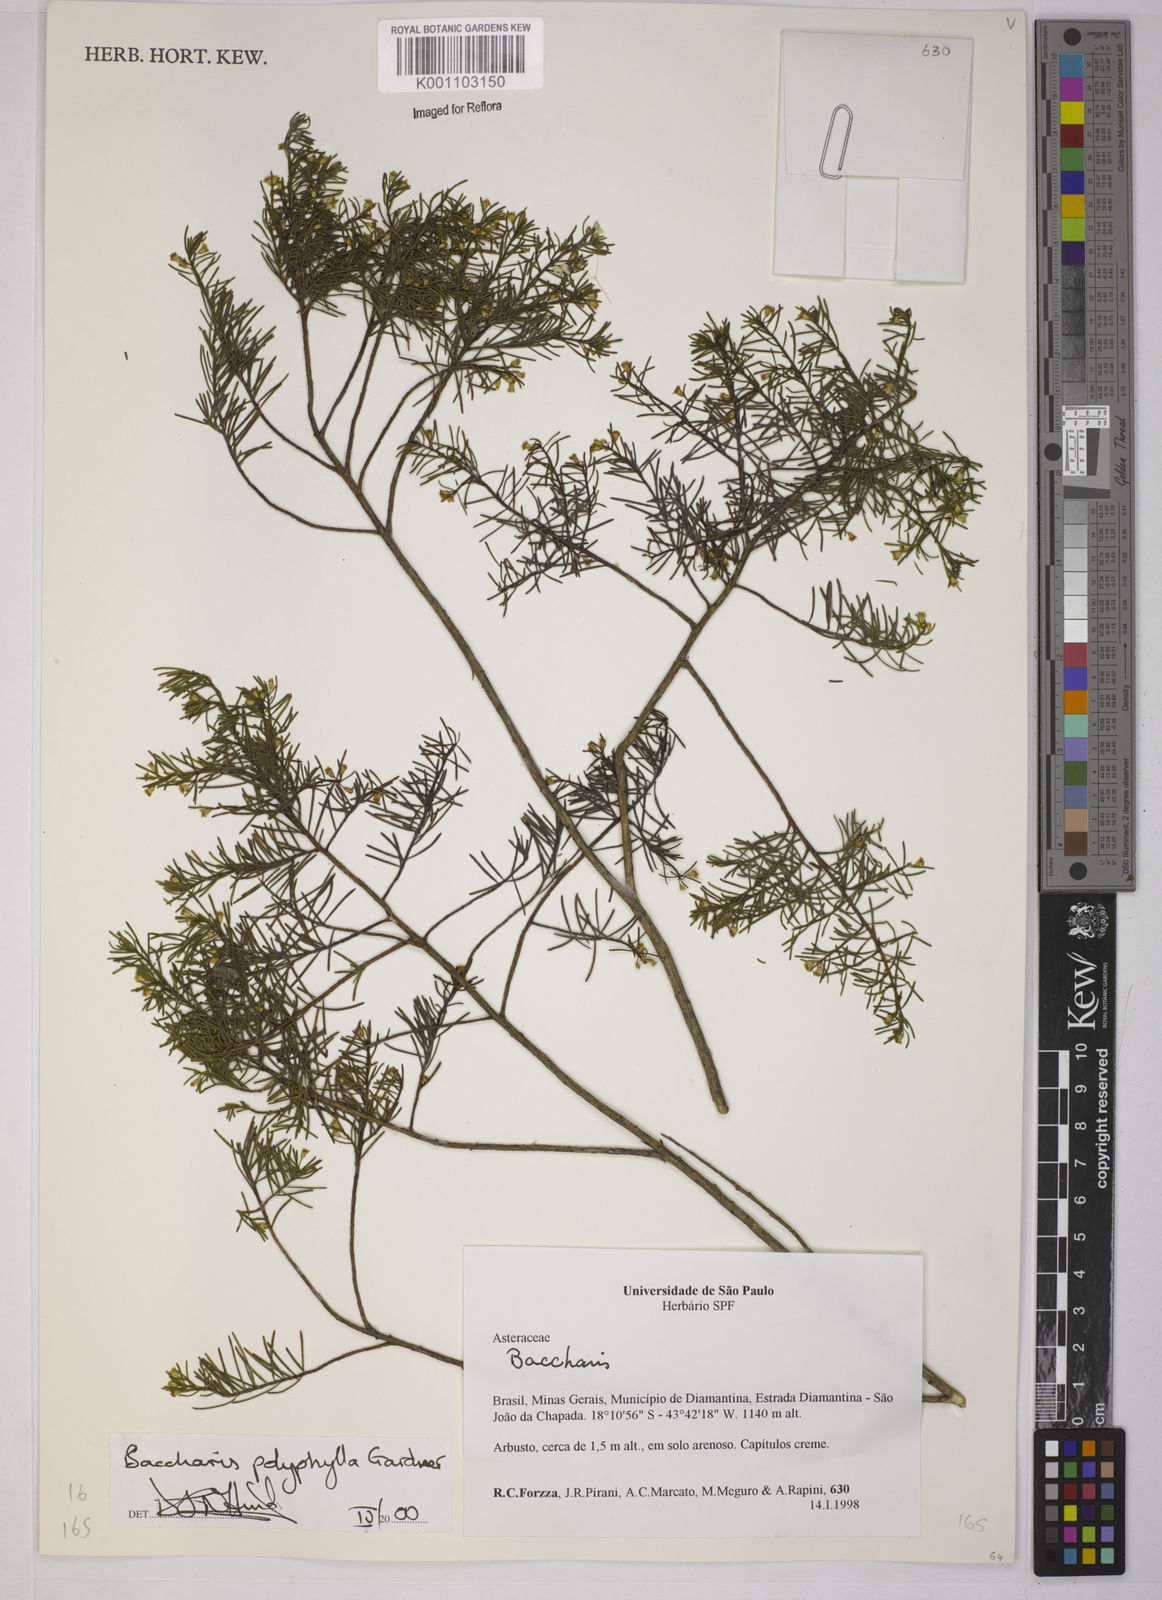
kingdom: Plantae
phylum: Tracheophyta
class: Magnoliopsida
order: Asterales
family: Asteraceae
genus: Baccharis
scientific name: Baccharis polyphylla
